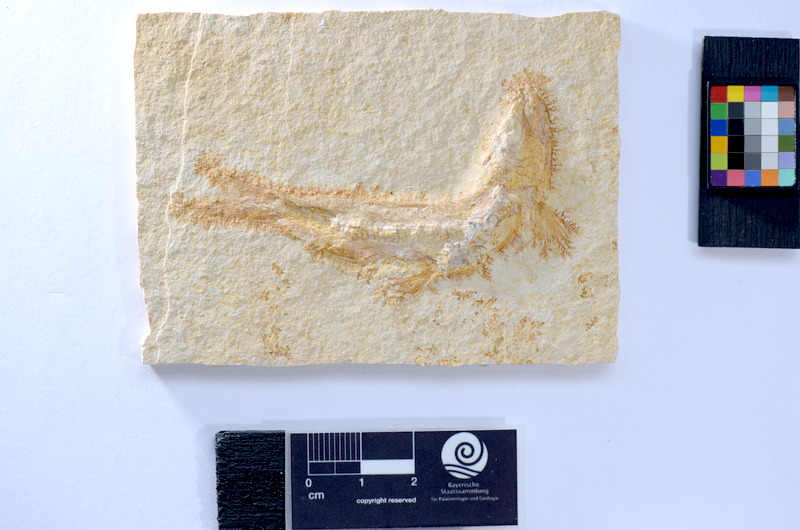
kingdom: Animalia
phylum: Chordata
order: Salmoniformes
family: Orthogonikleithridae
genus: Leptolepides
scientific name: Leptolepides
